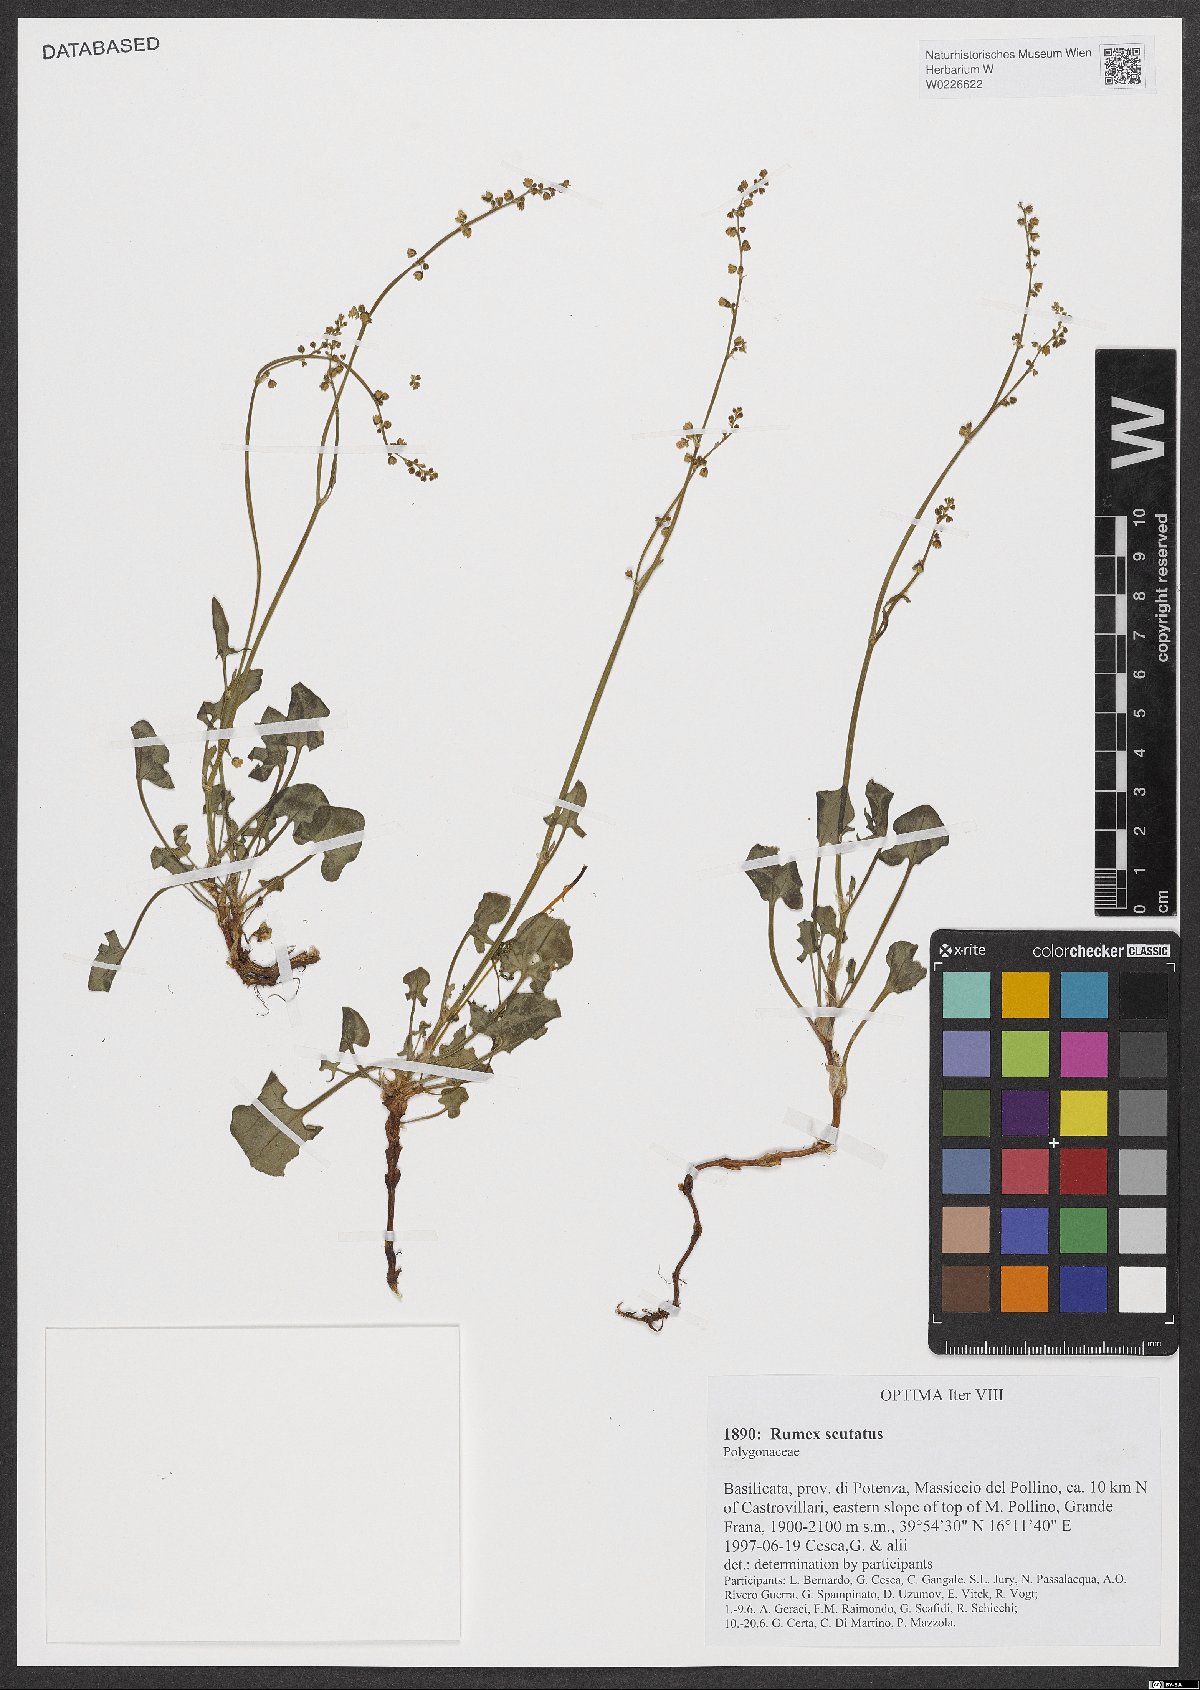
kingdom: Plantae
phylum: Tracheophyta
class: Magnoliopsida
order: Caryophyllales
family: Polygonaceae
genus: Rumex
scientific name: Rumex scutatus
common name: French sorrel
